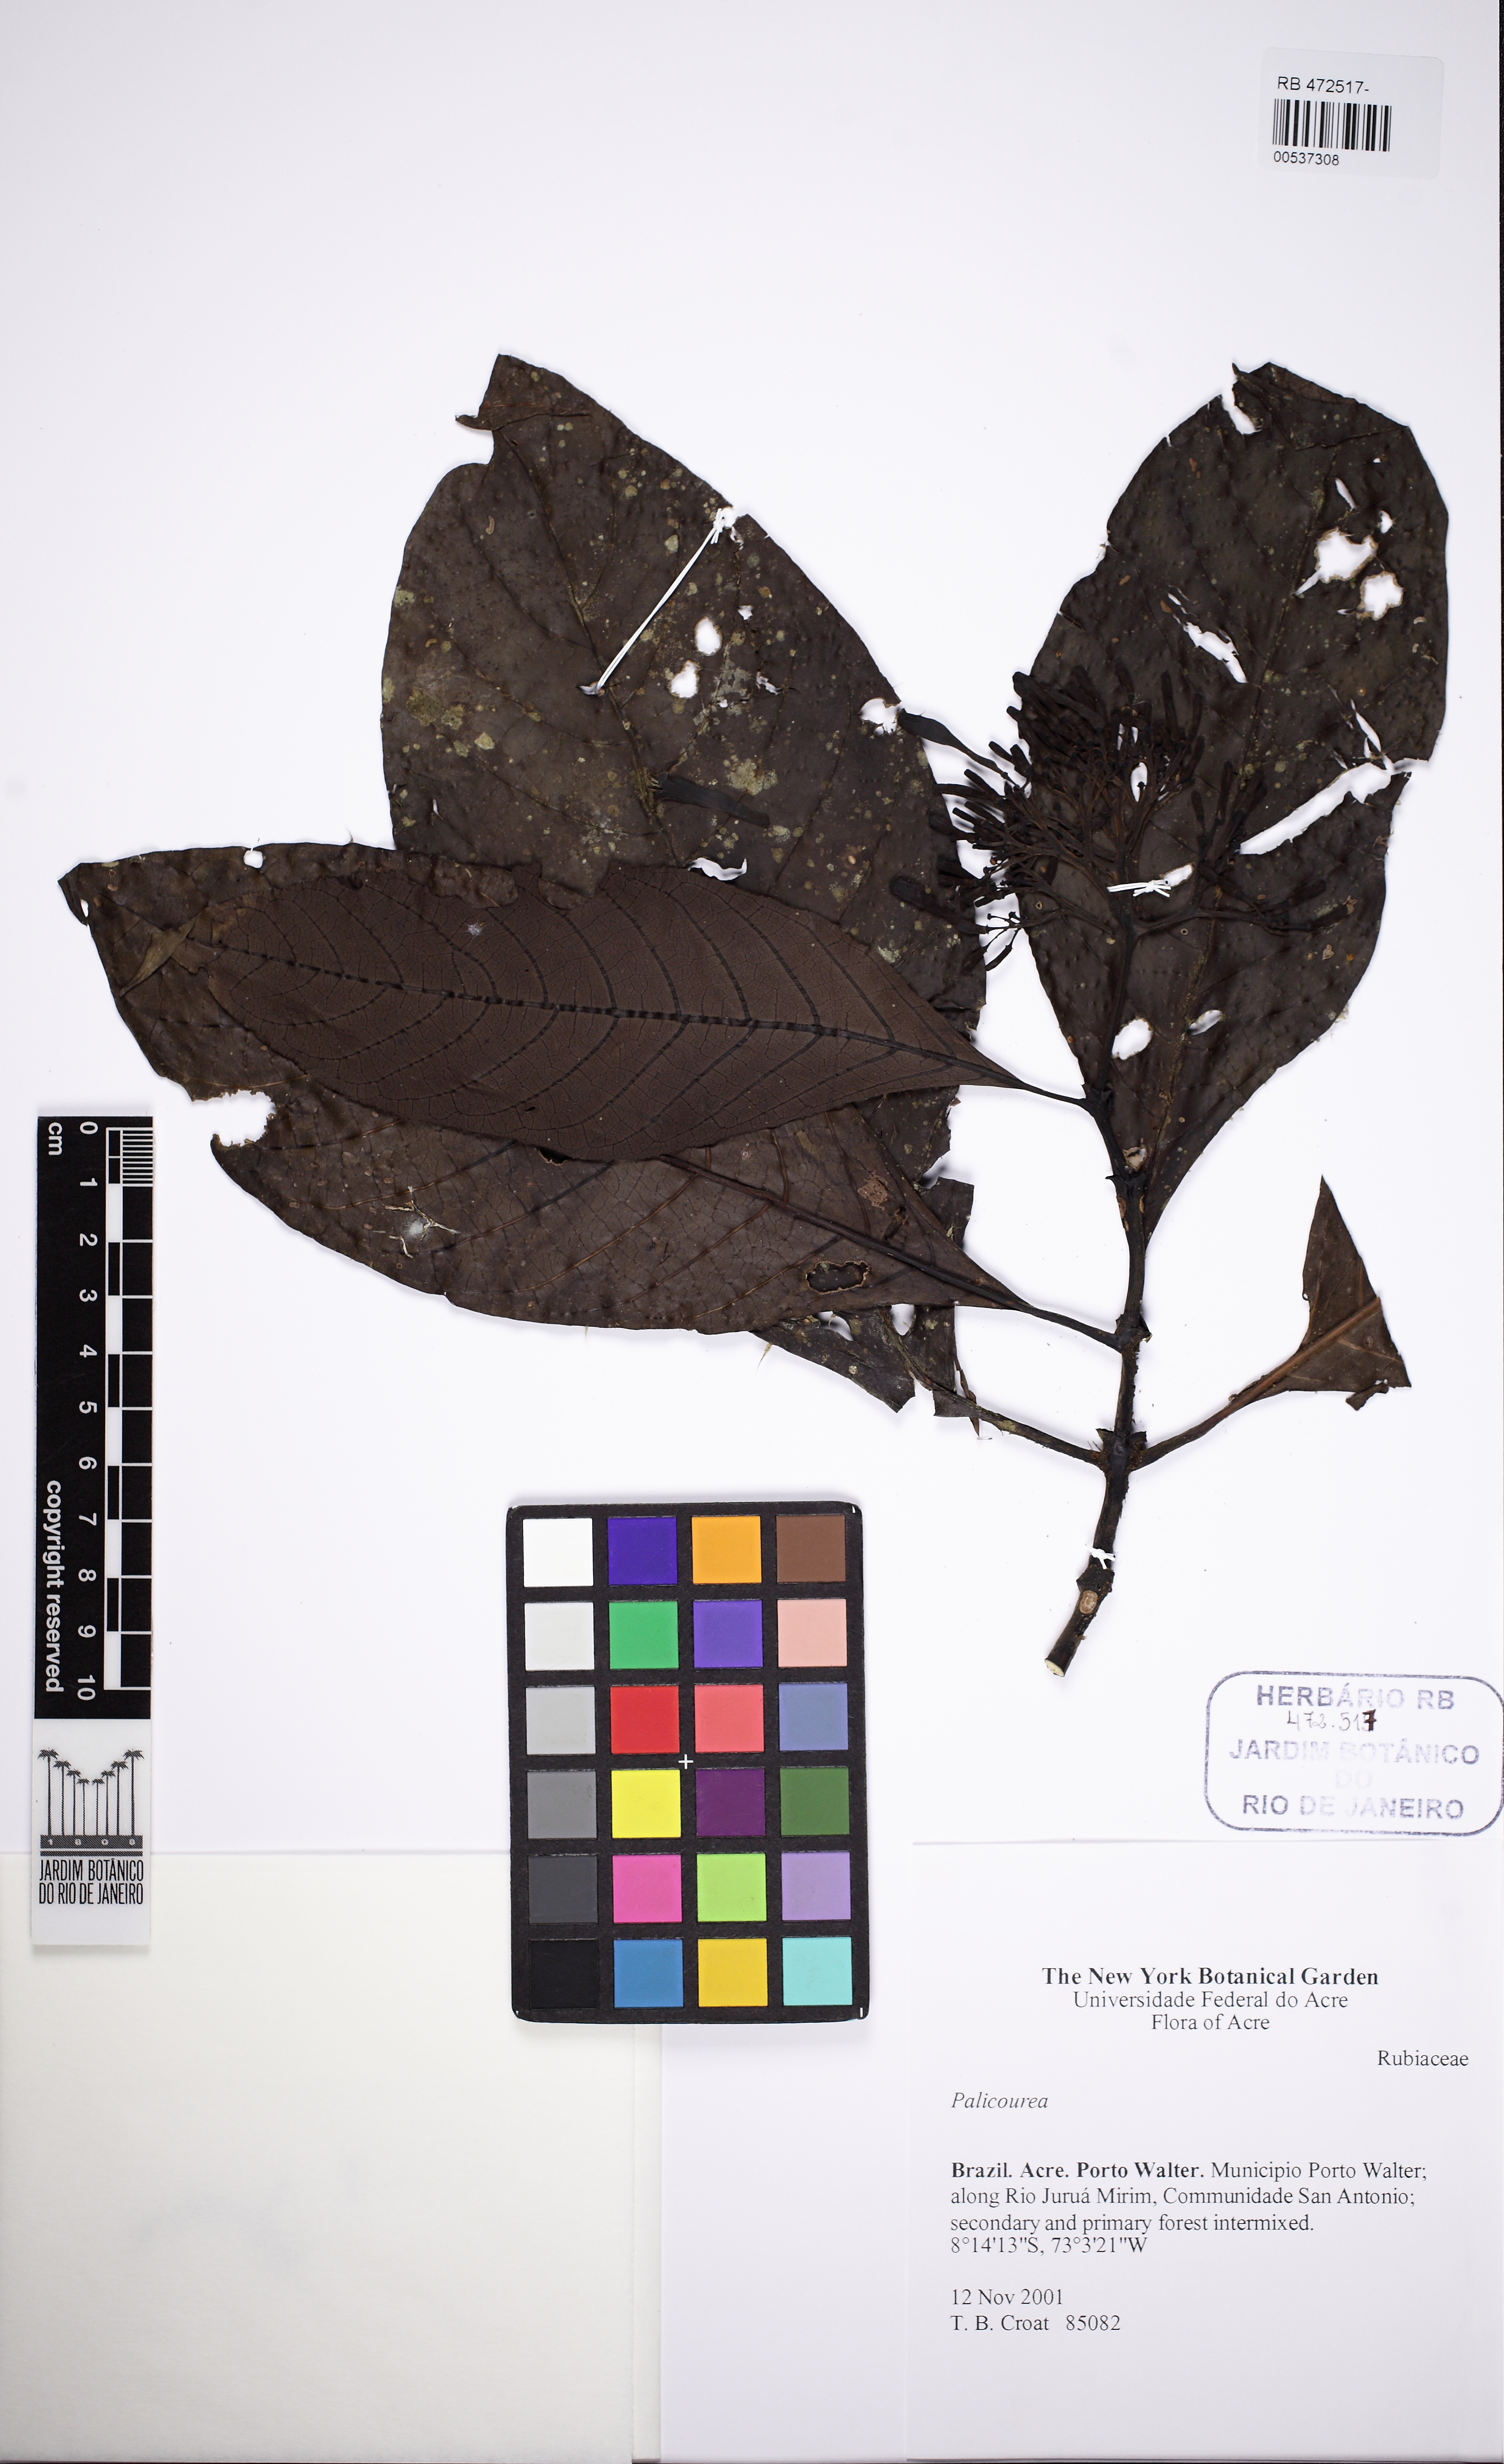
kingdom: Plantae
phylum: Tracheophyta
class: Magnoliopsida
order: Gentianales
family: Rubiaceae
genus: Palicourea
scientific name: Palicourea guianensis
